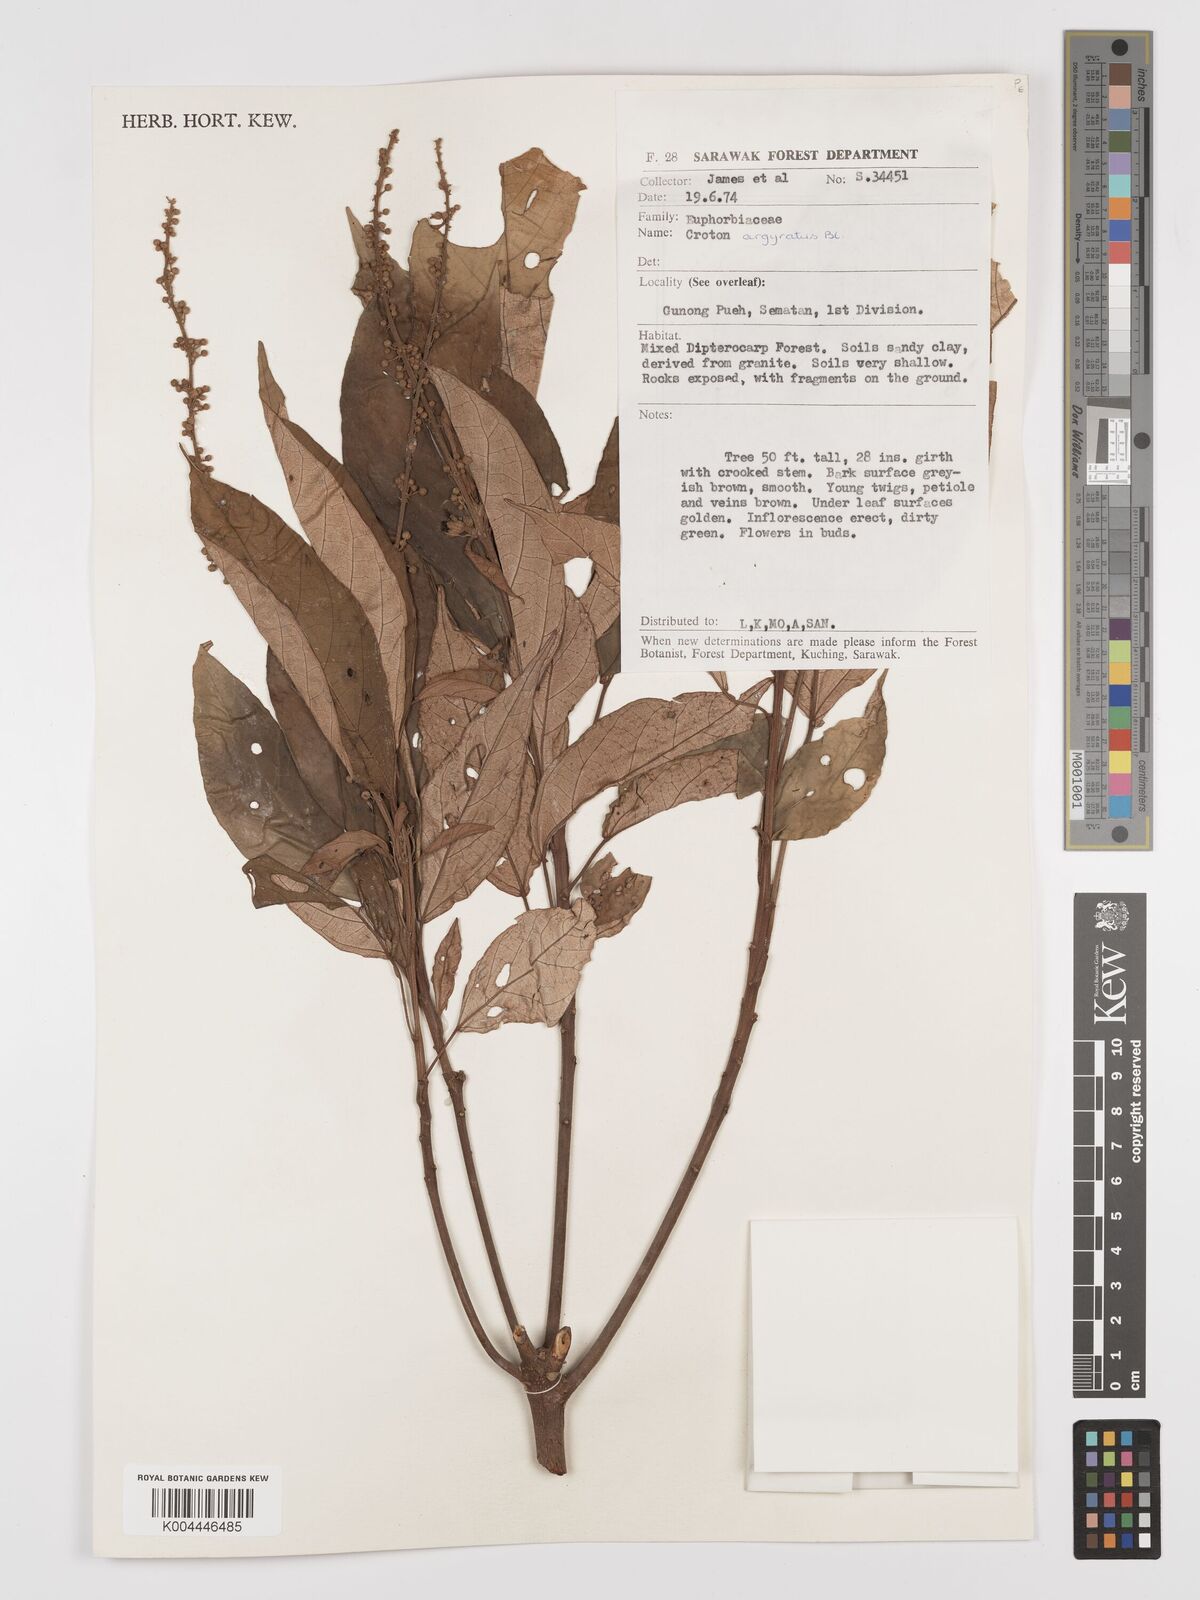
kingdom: Plantae
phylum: Tracheophyta
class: Magnoliopsida
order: Malpighiales
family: Euphorbiaceae
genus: Croton
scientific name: Croton argyratus
